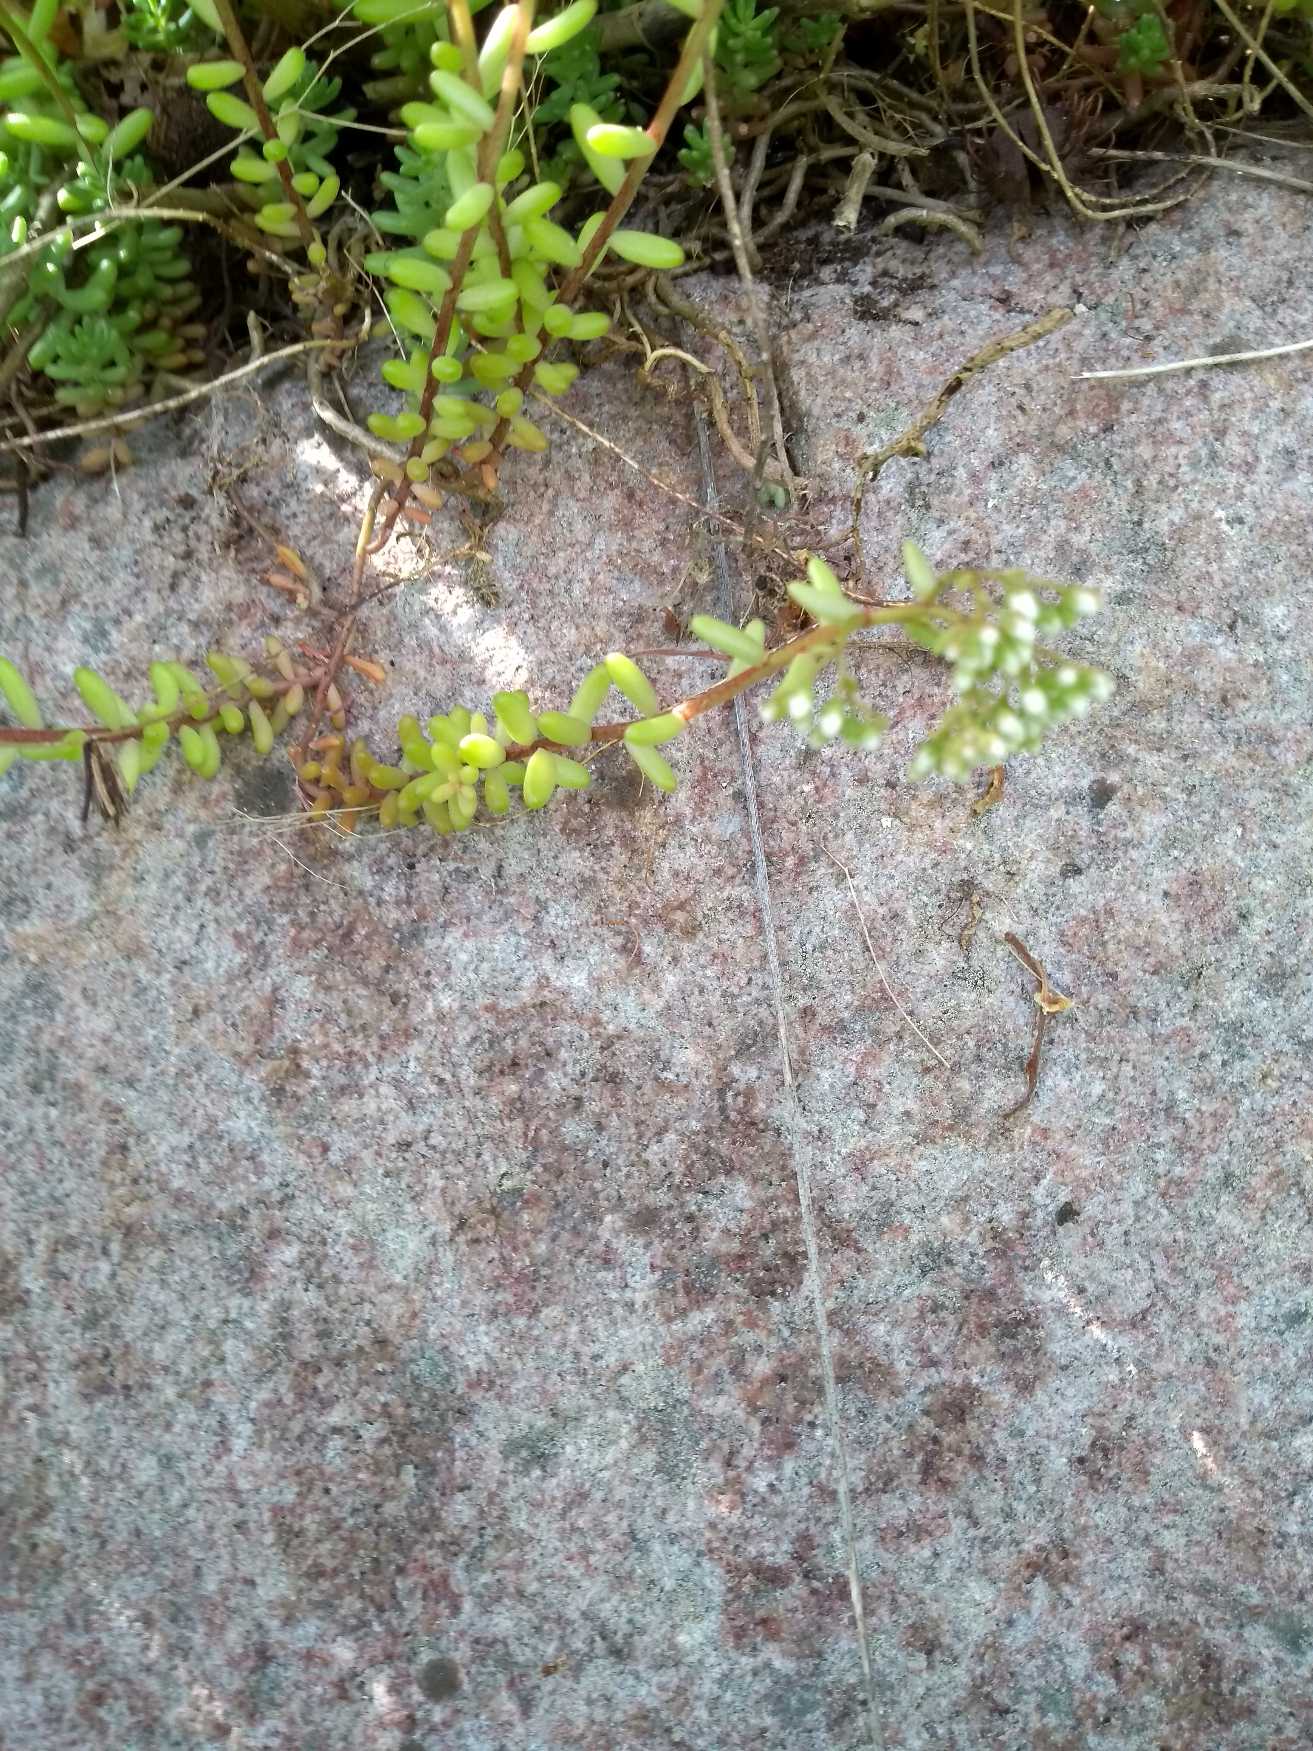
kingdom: Plantae
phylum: Tracheophyta
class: Magnoliopsida
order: Saxifragales
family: Crassulaceae
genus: Sedum
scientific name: Sedum album
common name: Hvid stenurt
